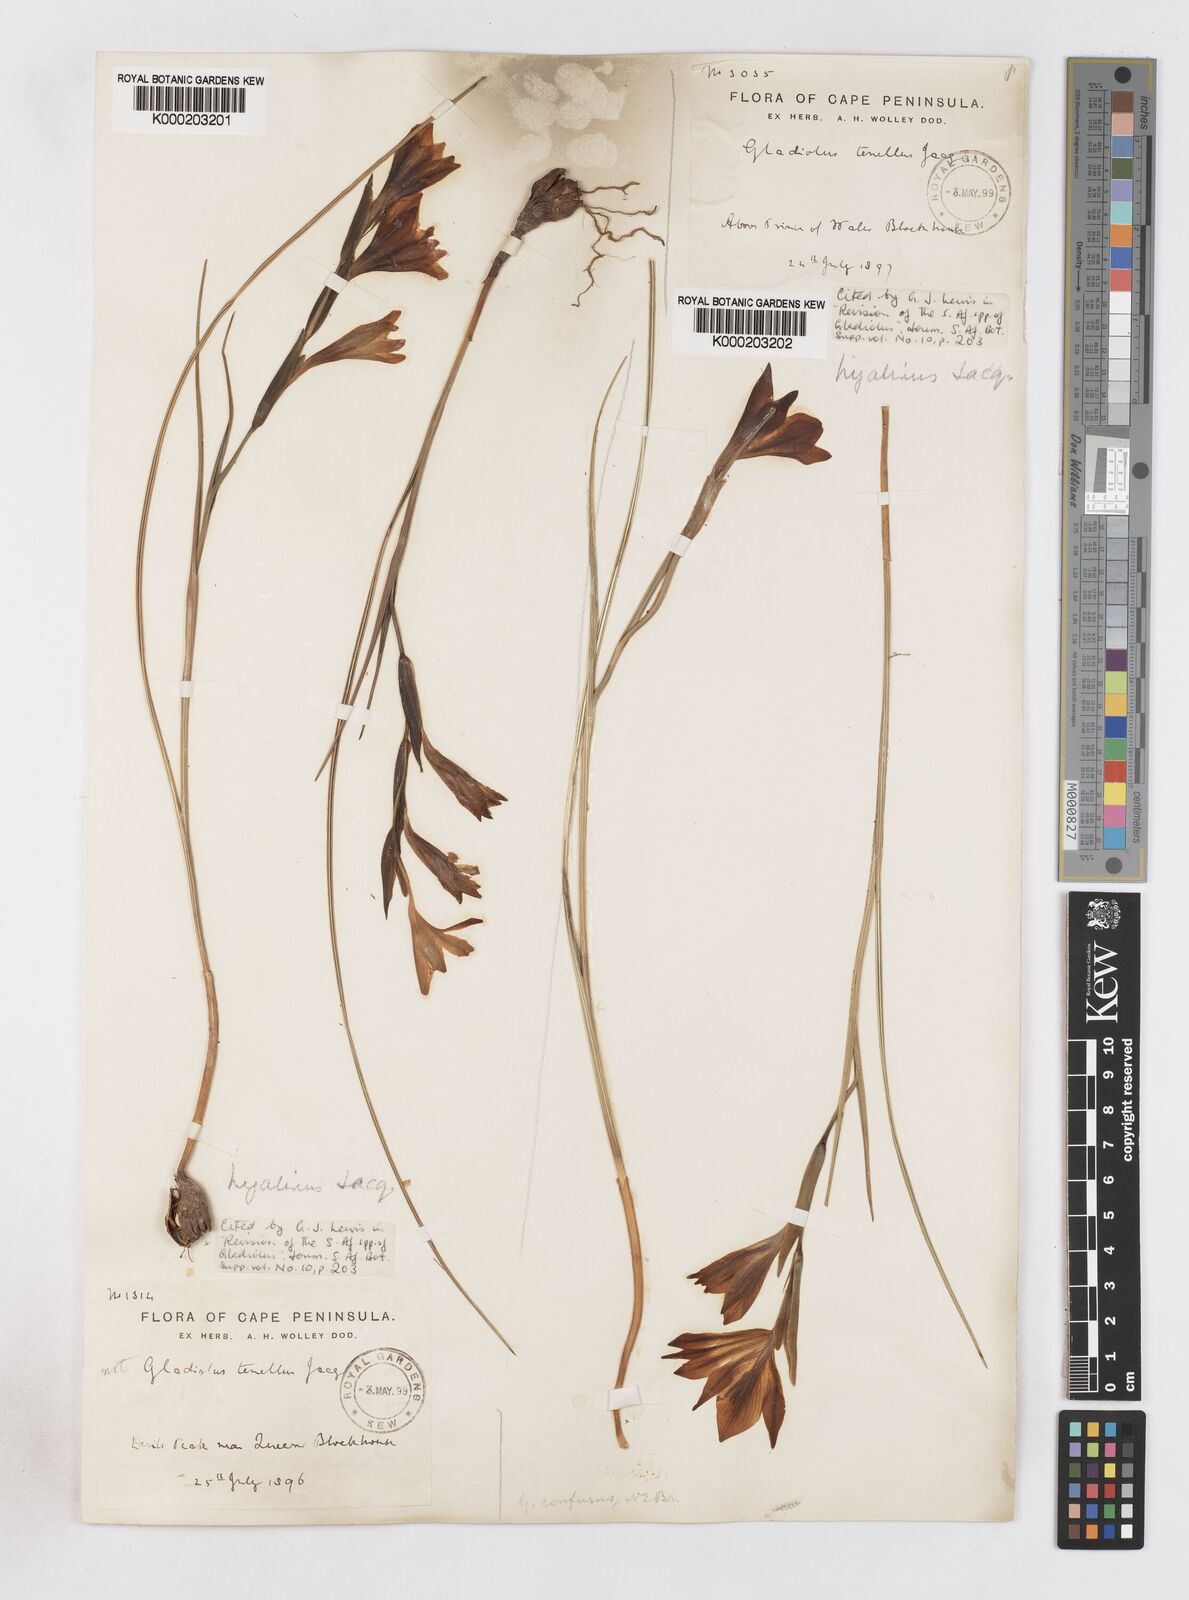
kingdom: Plantae
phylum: Tracheophyta
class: Liliopsida
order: Asparagales
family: Iridaceae
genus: Gladiolus
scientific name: Gladiolus hyalinus
